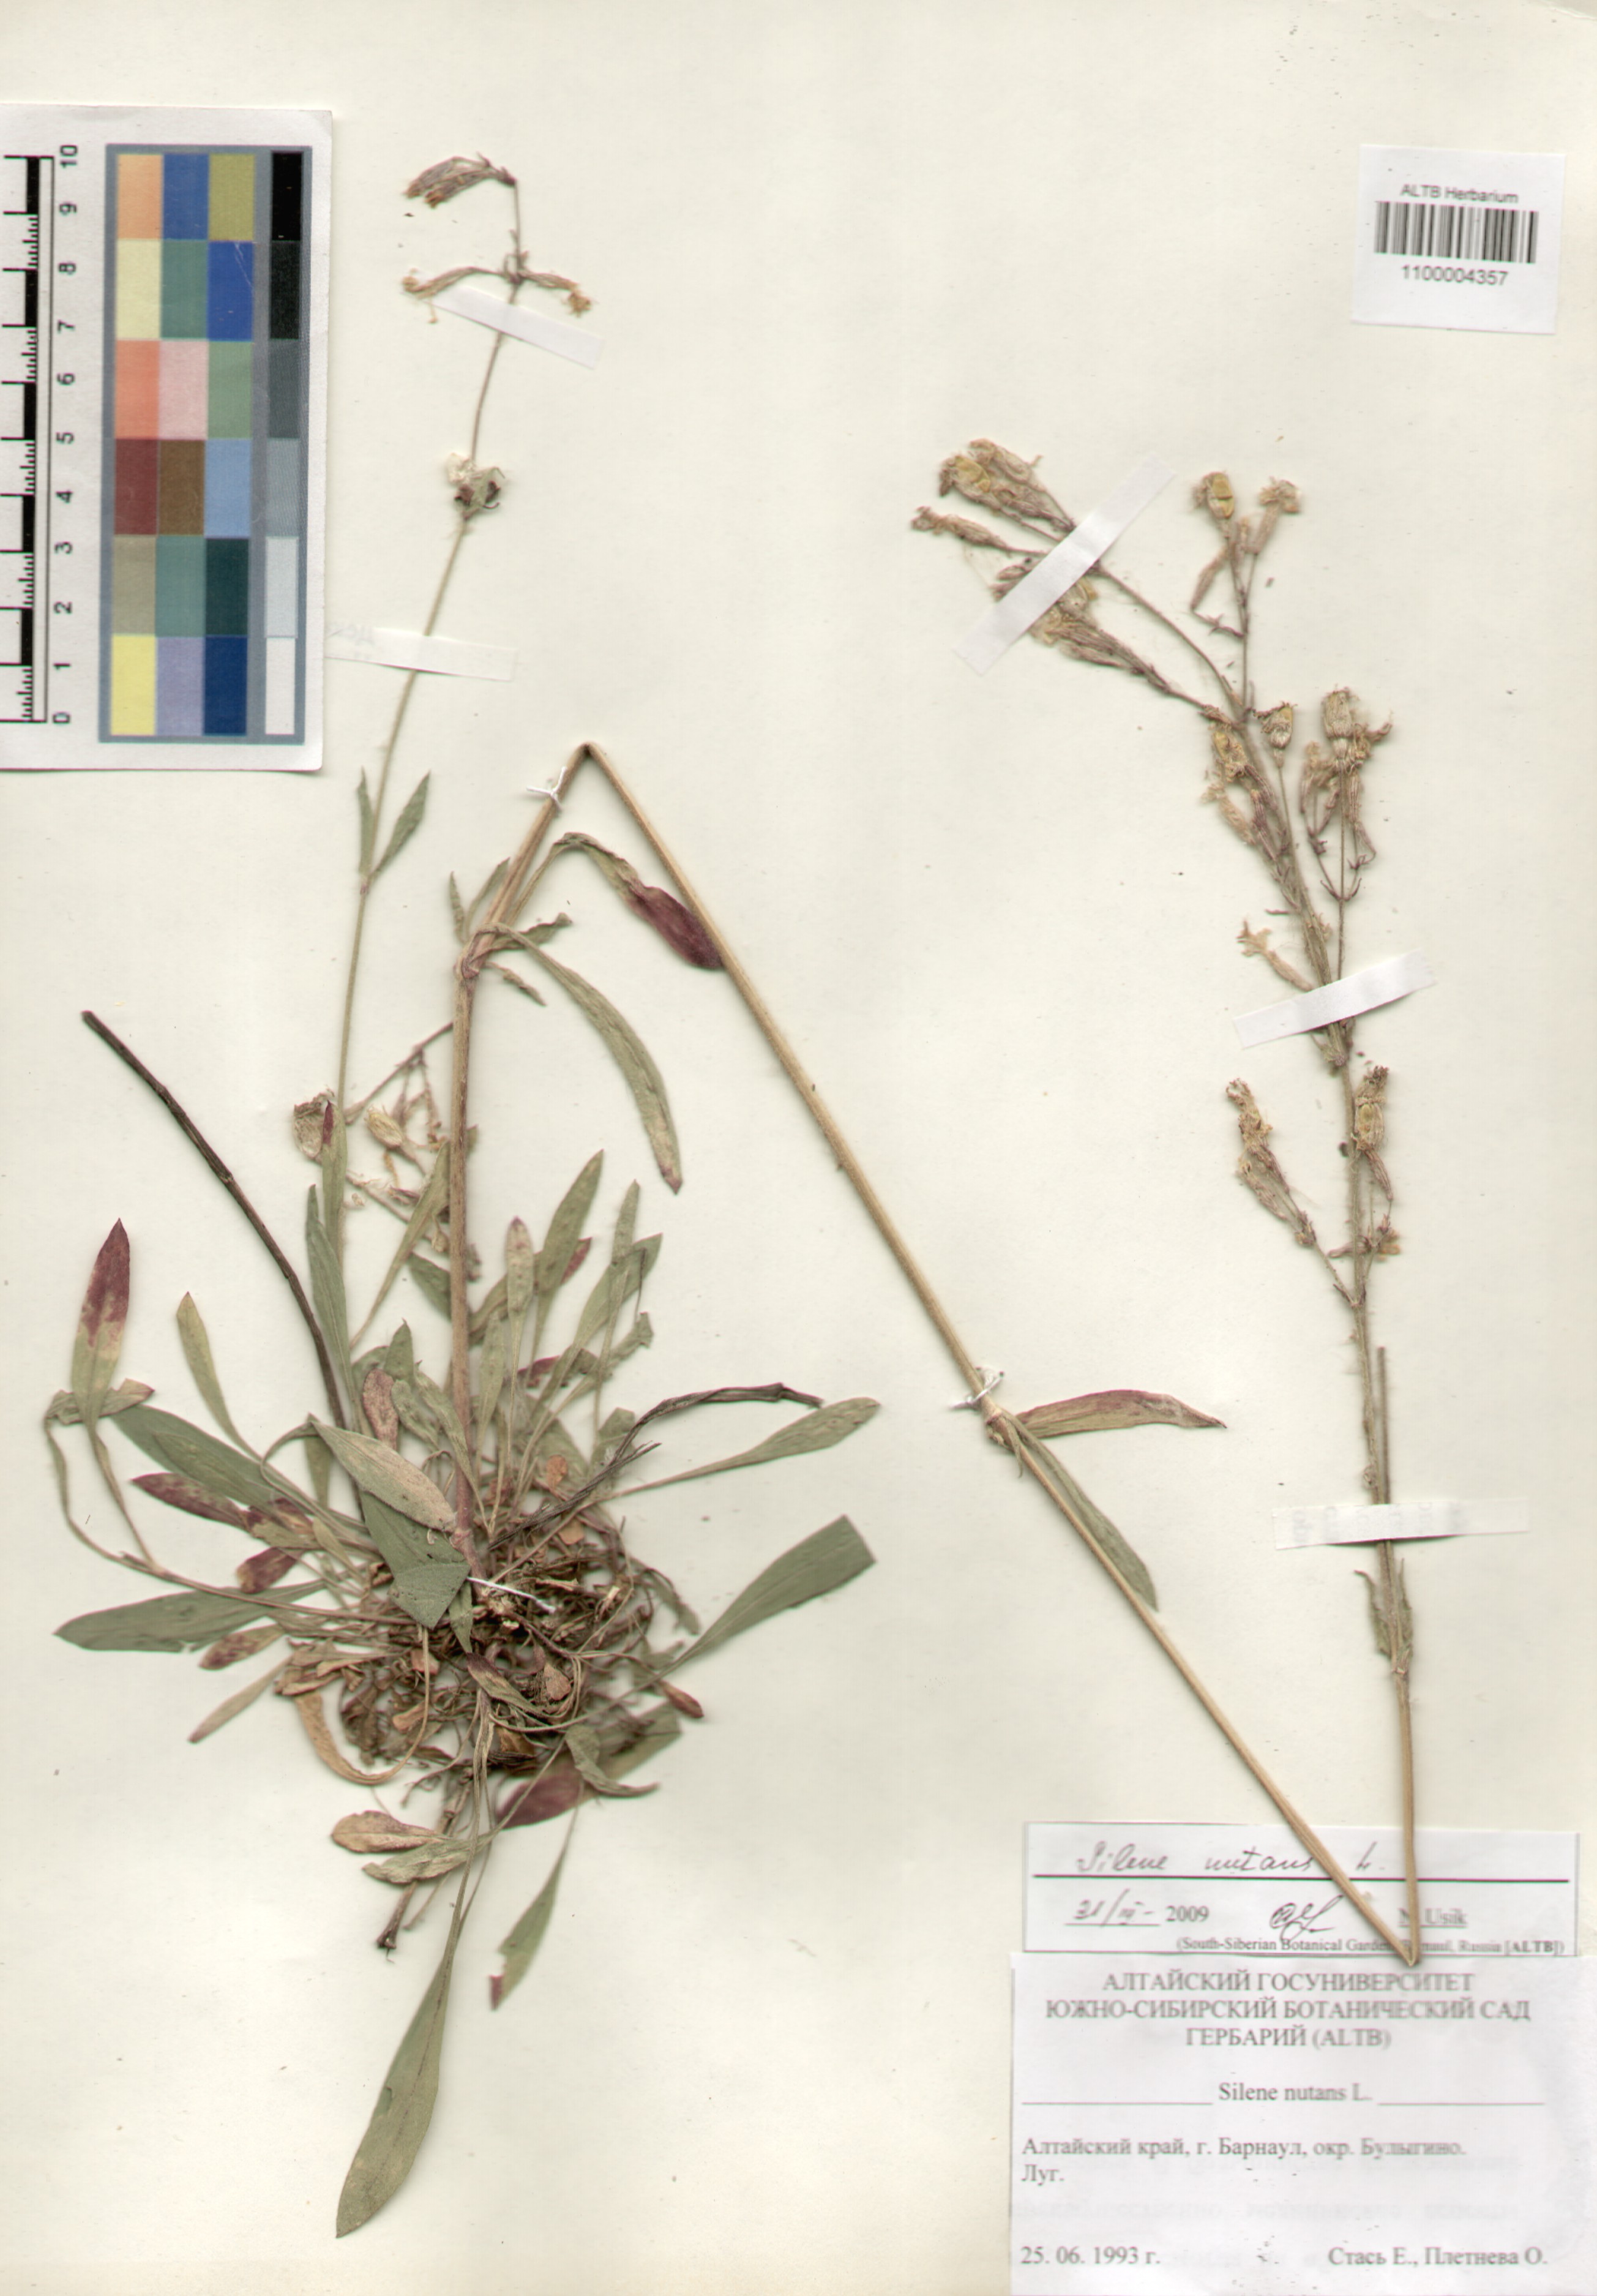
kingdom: Plantae
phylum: Tracheophyta
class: Magnoliopsida
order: Caryophyllales
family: Caryophyllaceae
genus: Silene
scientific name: Silene nutans
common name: Nottingham catchfly
